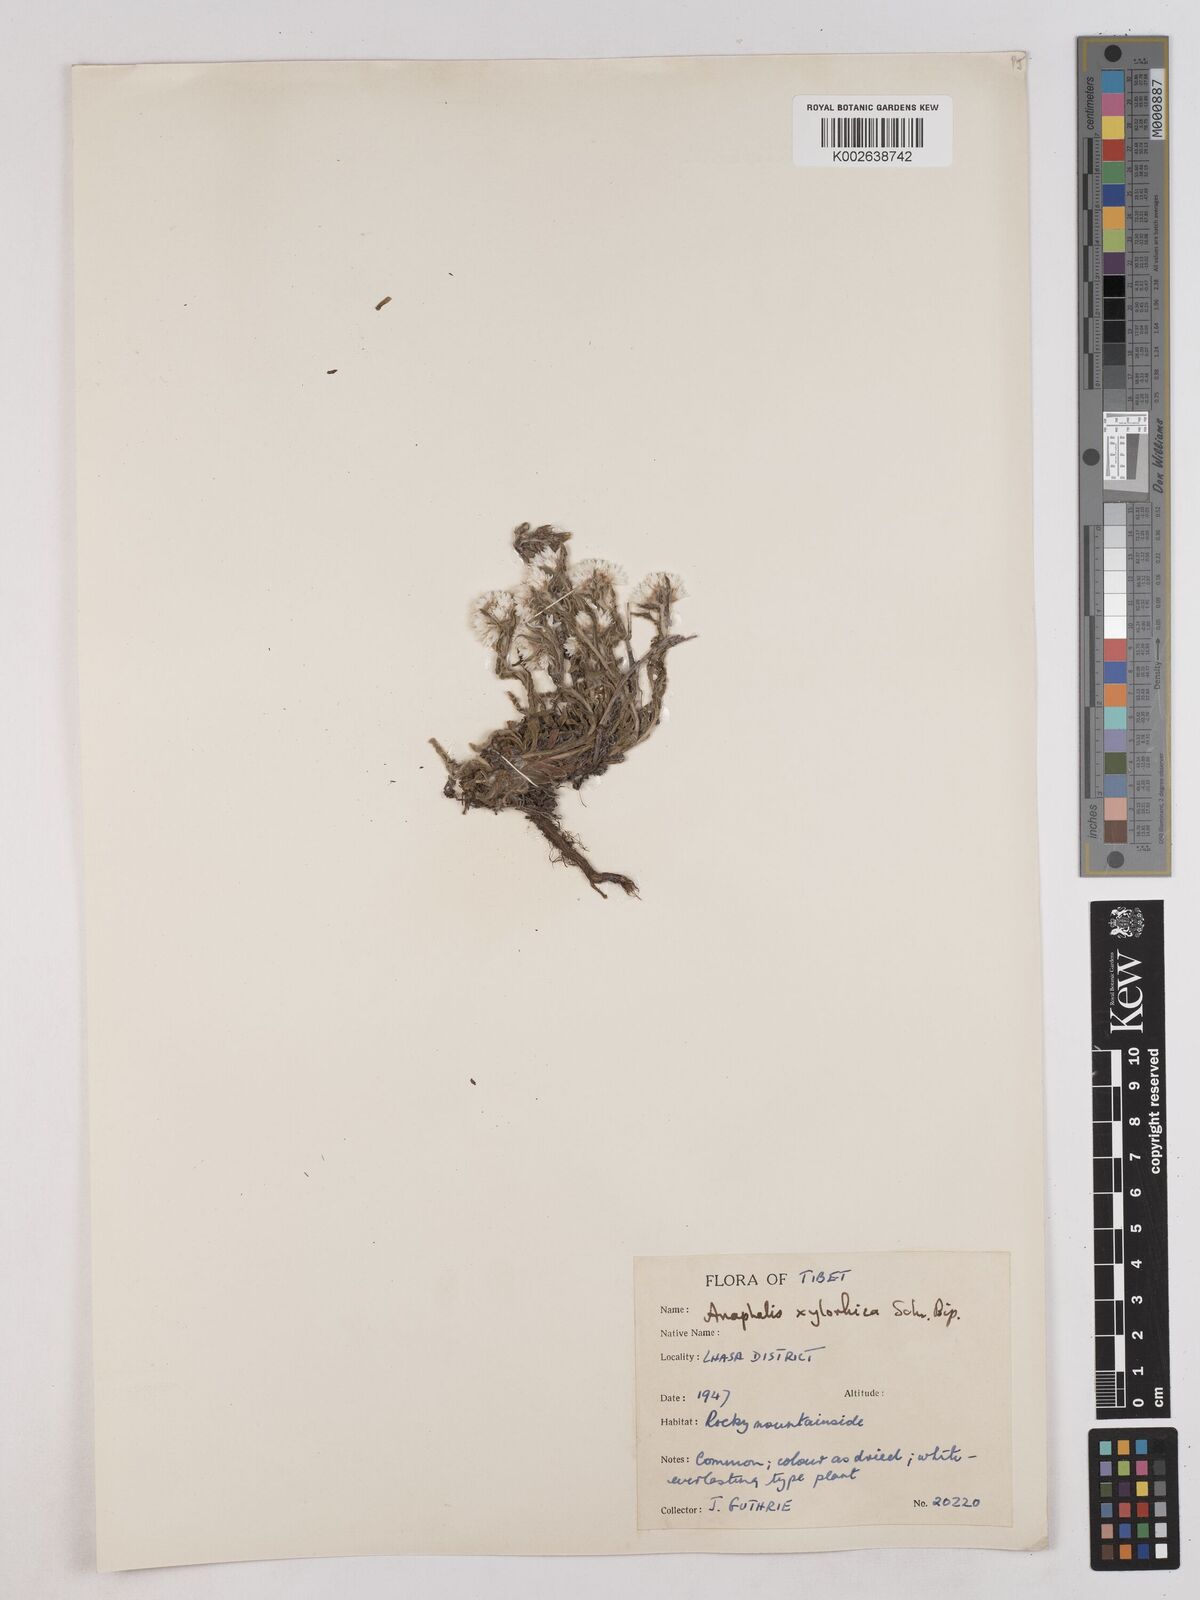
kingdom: Plantae
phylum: Tracheophyta
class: Magnoliopsida
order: Asterales
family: Asteraceae
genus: Anaphalis
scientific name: Anaphalis xylorhiza
